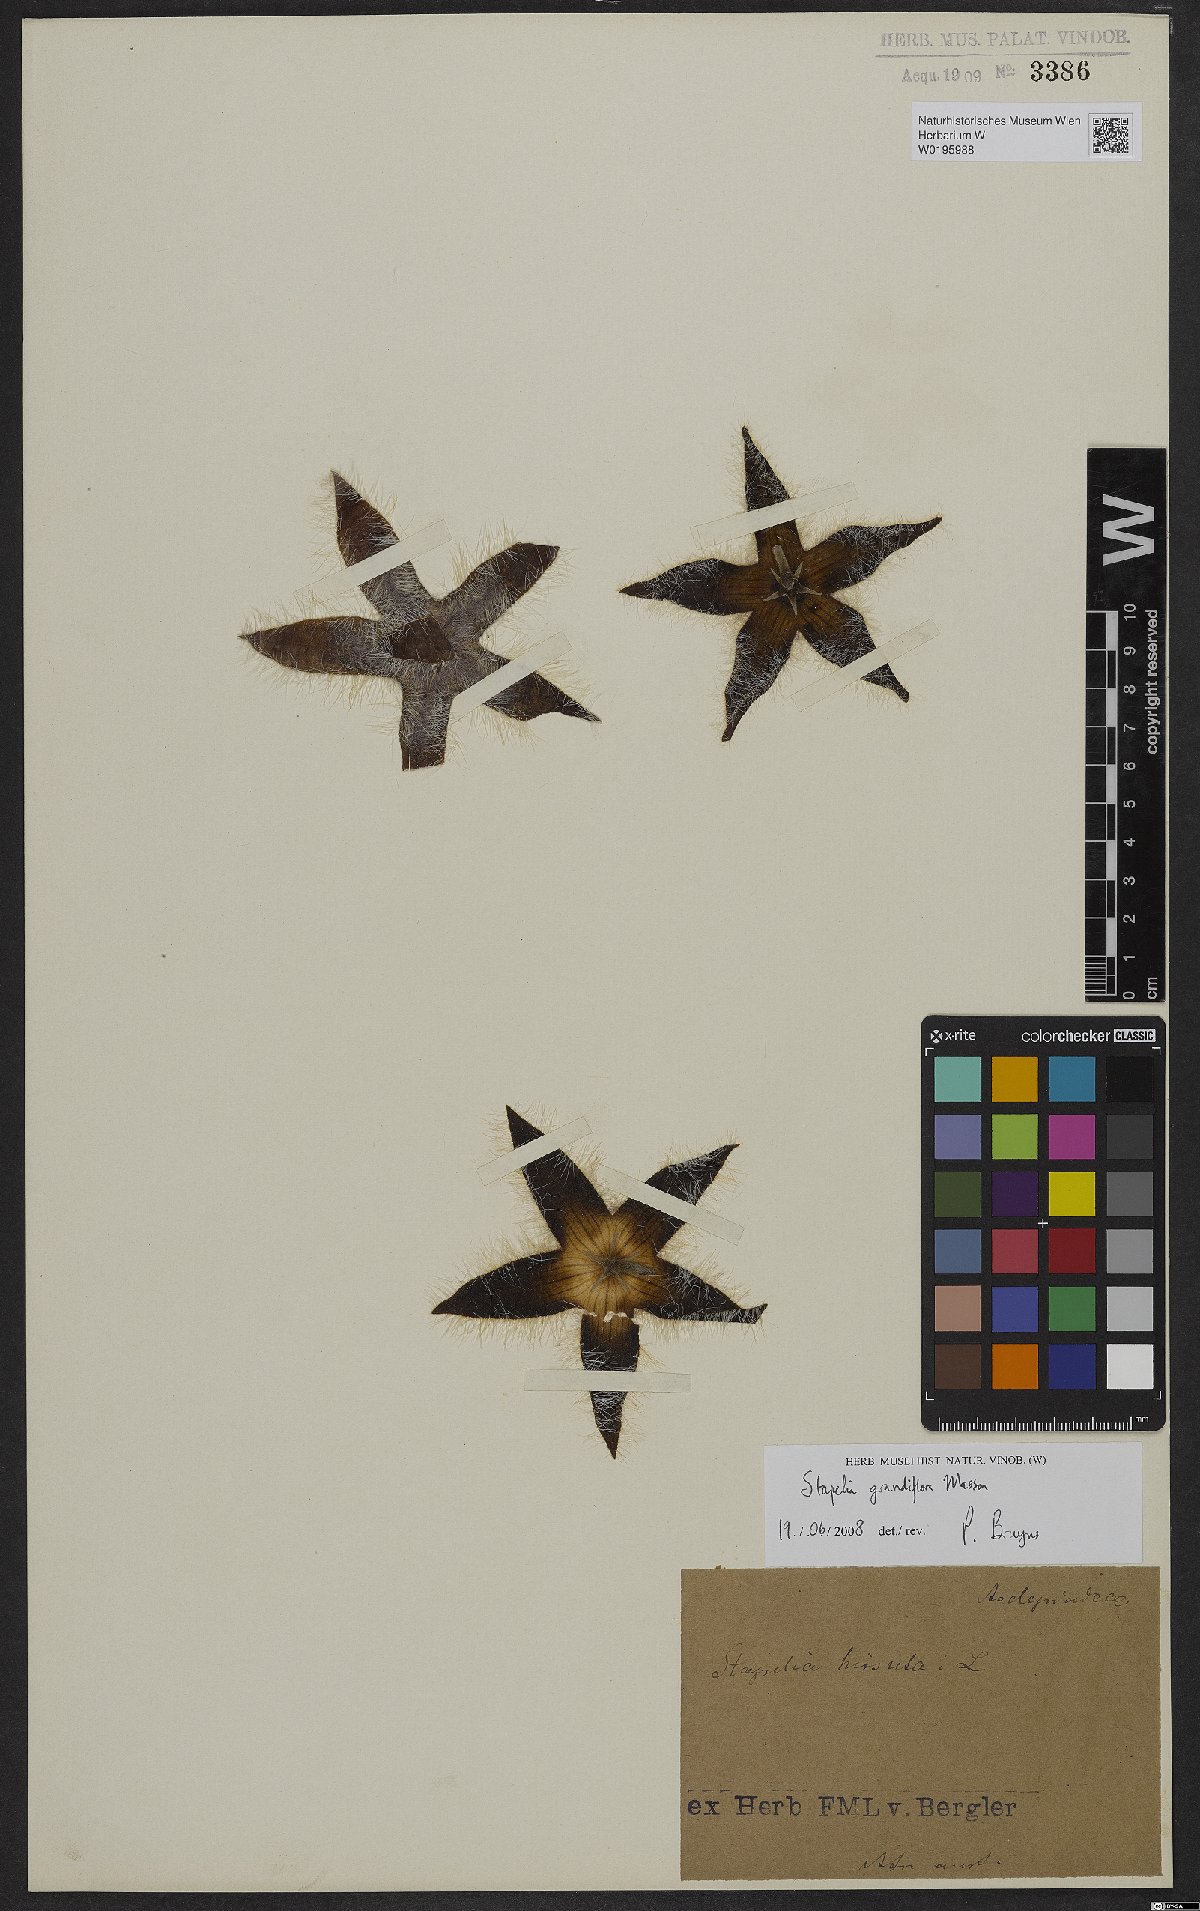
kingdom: Plantae
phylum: Tracheophyta
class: Magnoliopsida
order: Gentianales
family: Apocynaceae
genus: Ceropegia
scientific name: Ceropegia grandiflora
